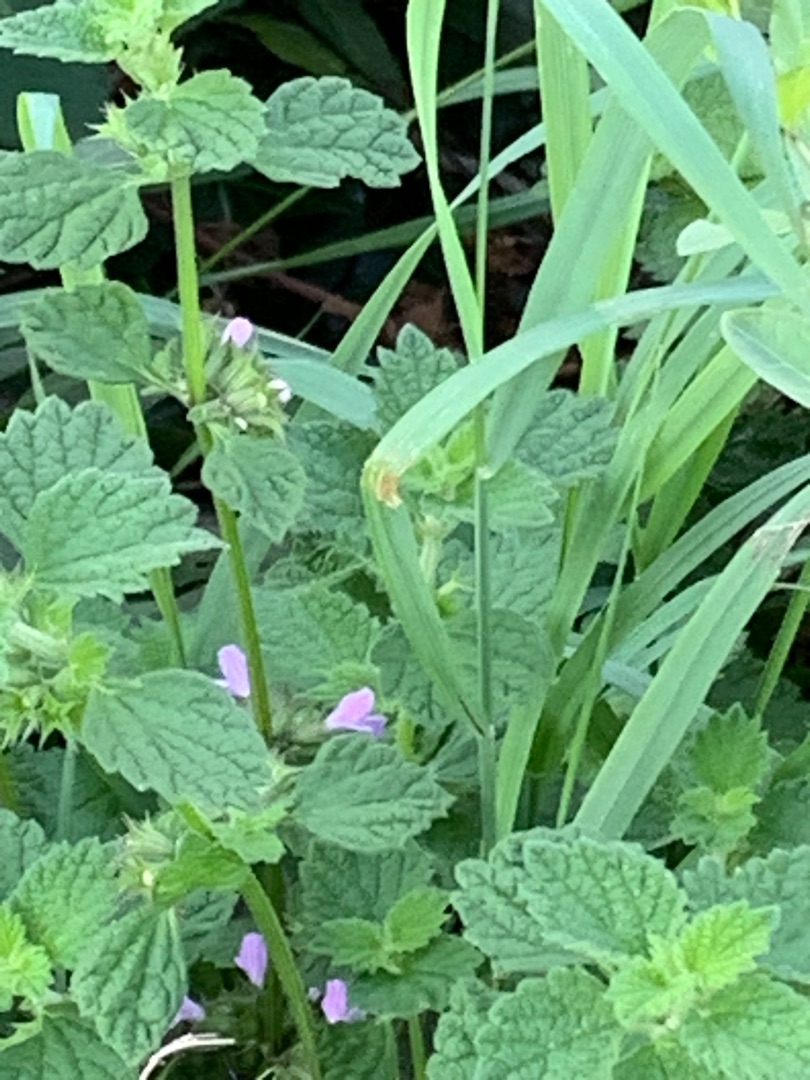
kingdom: Plantae
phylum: Tracheophyta
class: Magnoliopsida
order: Lamiales
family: Lamiaceae
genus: Ballota
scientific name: Ballota nigra
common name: Tandbæger
